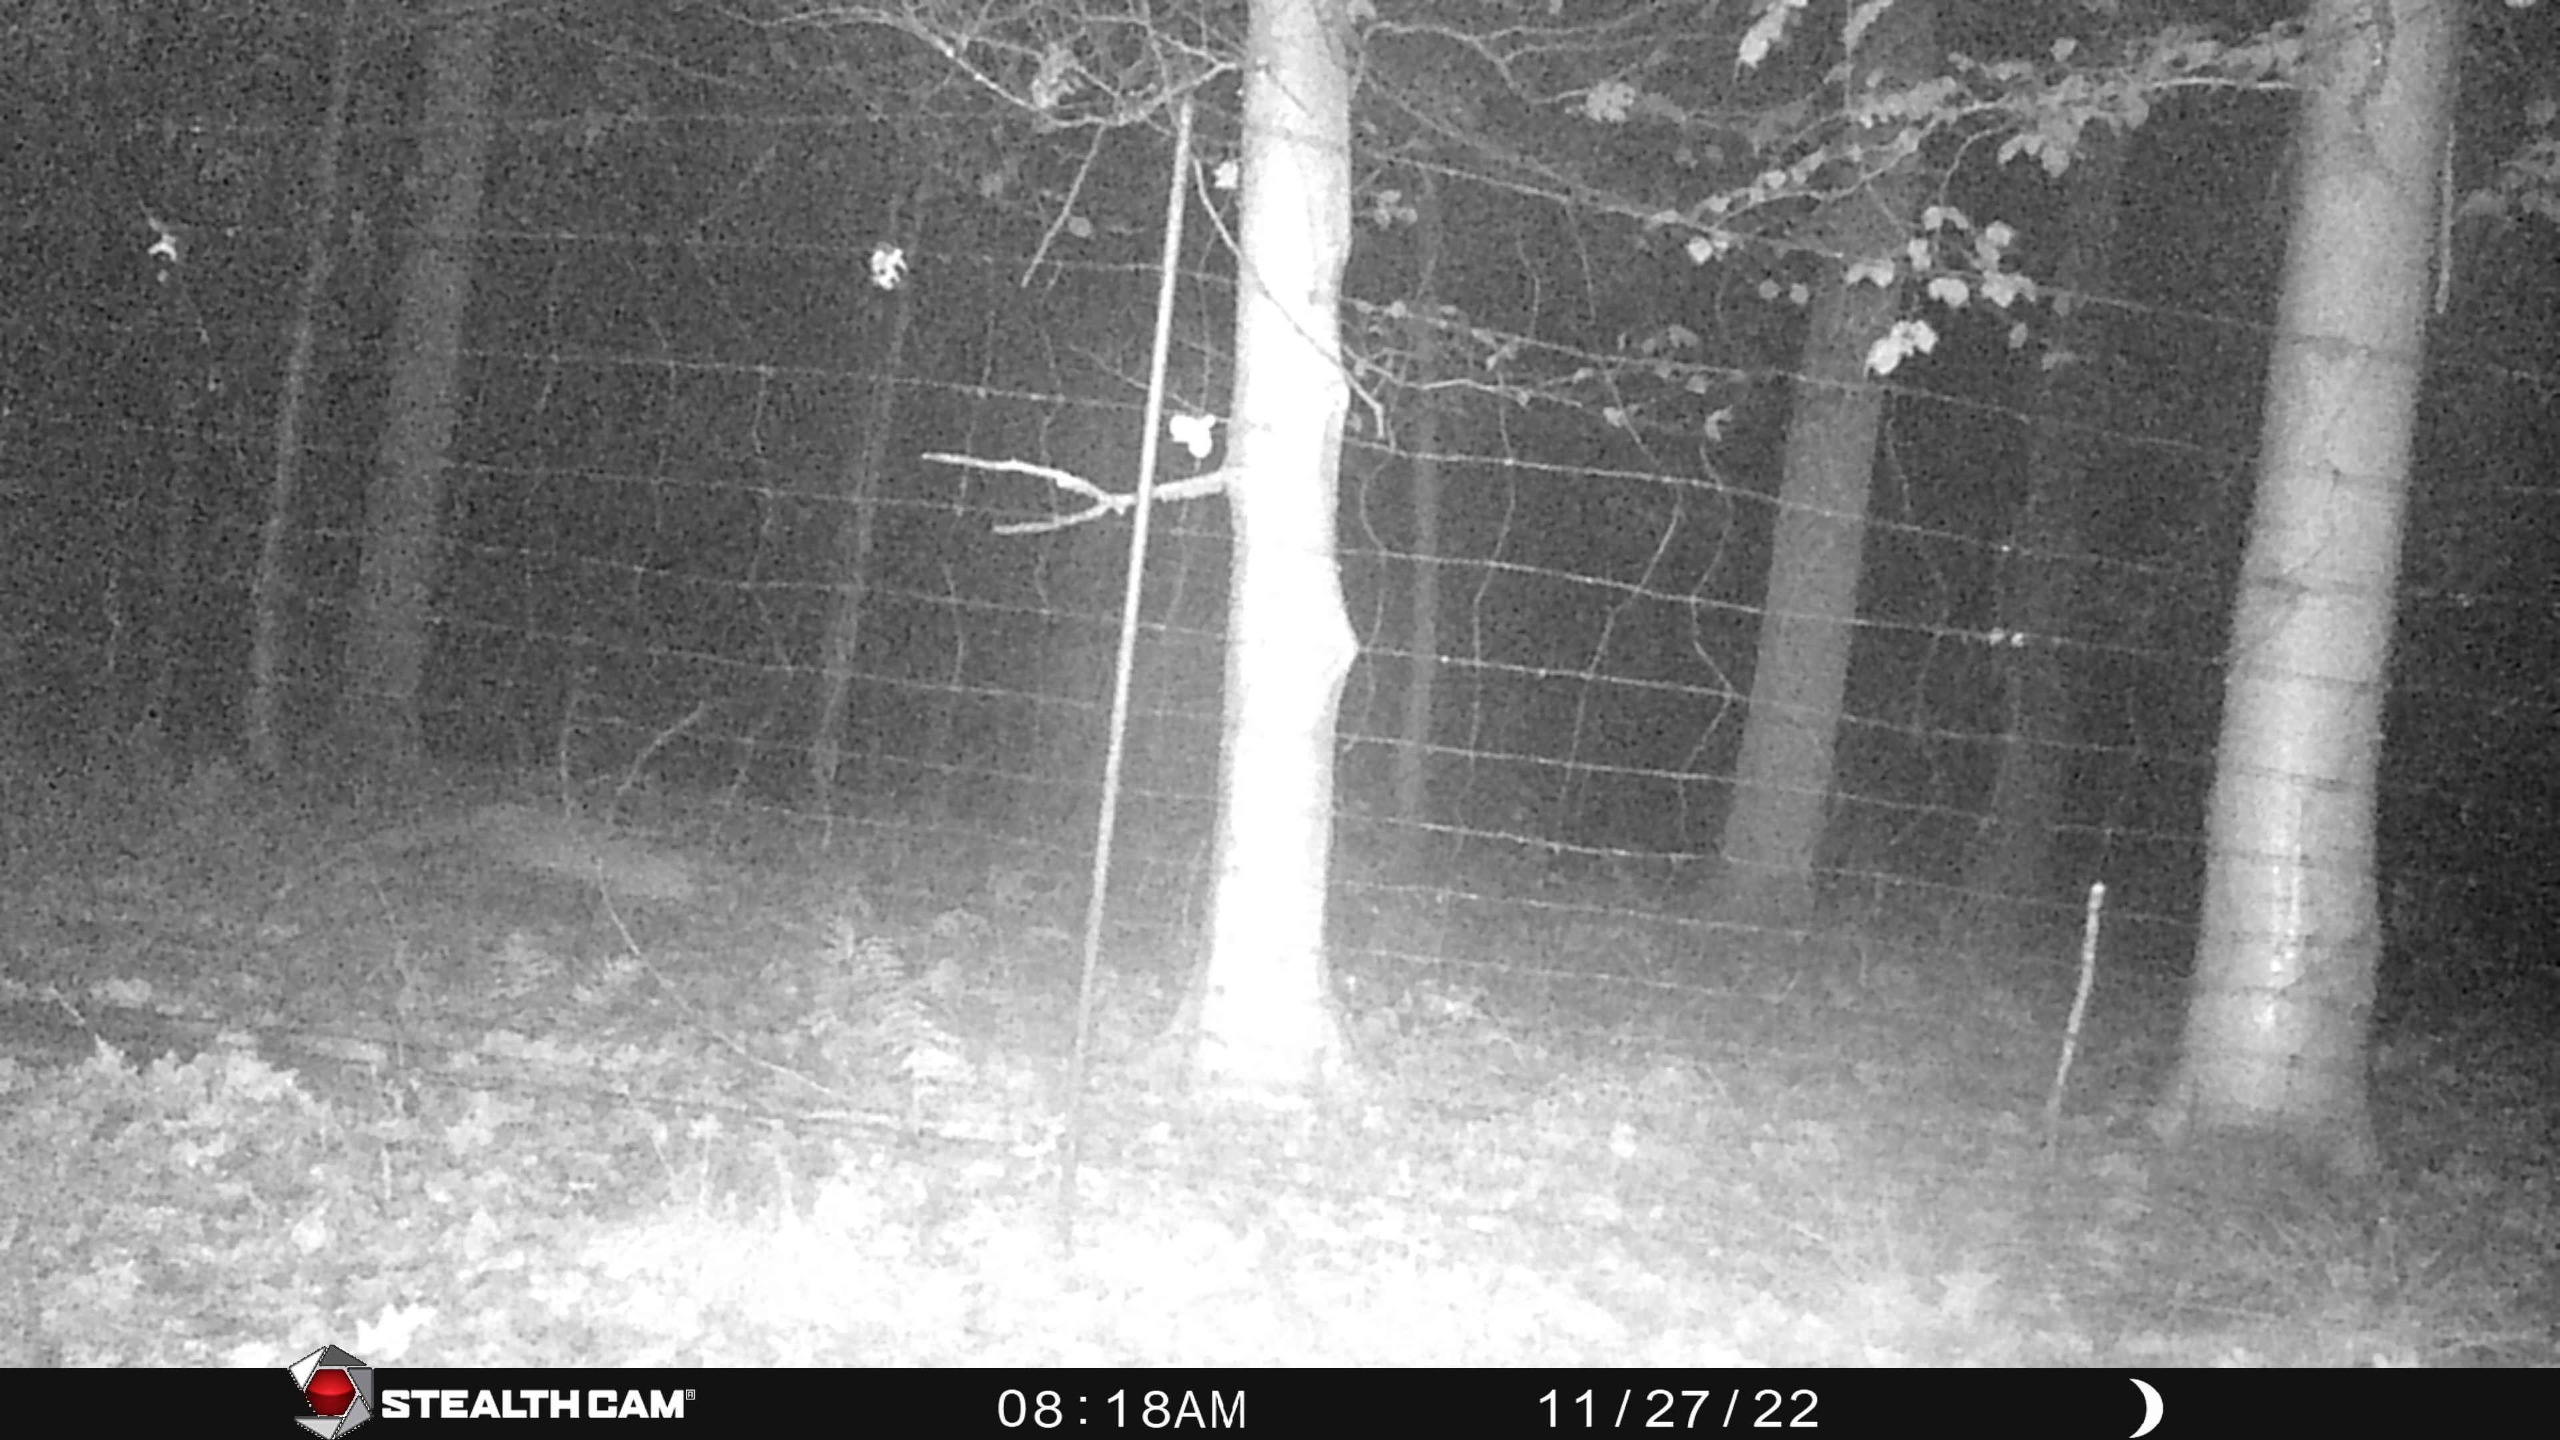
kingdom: Animalia
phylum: Chordata
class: Mammalia
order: Carnivora
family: Canidae
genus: Vulpes
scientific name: Vulpes vulpes
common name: Ræv
